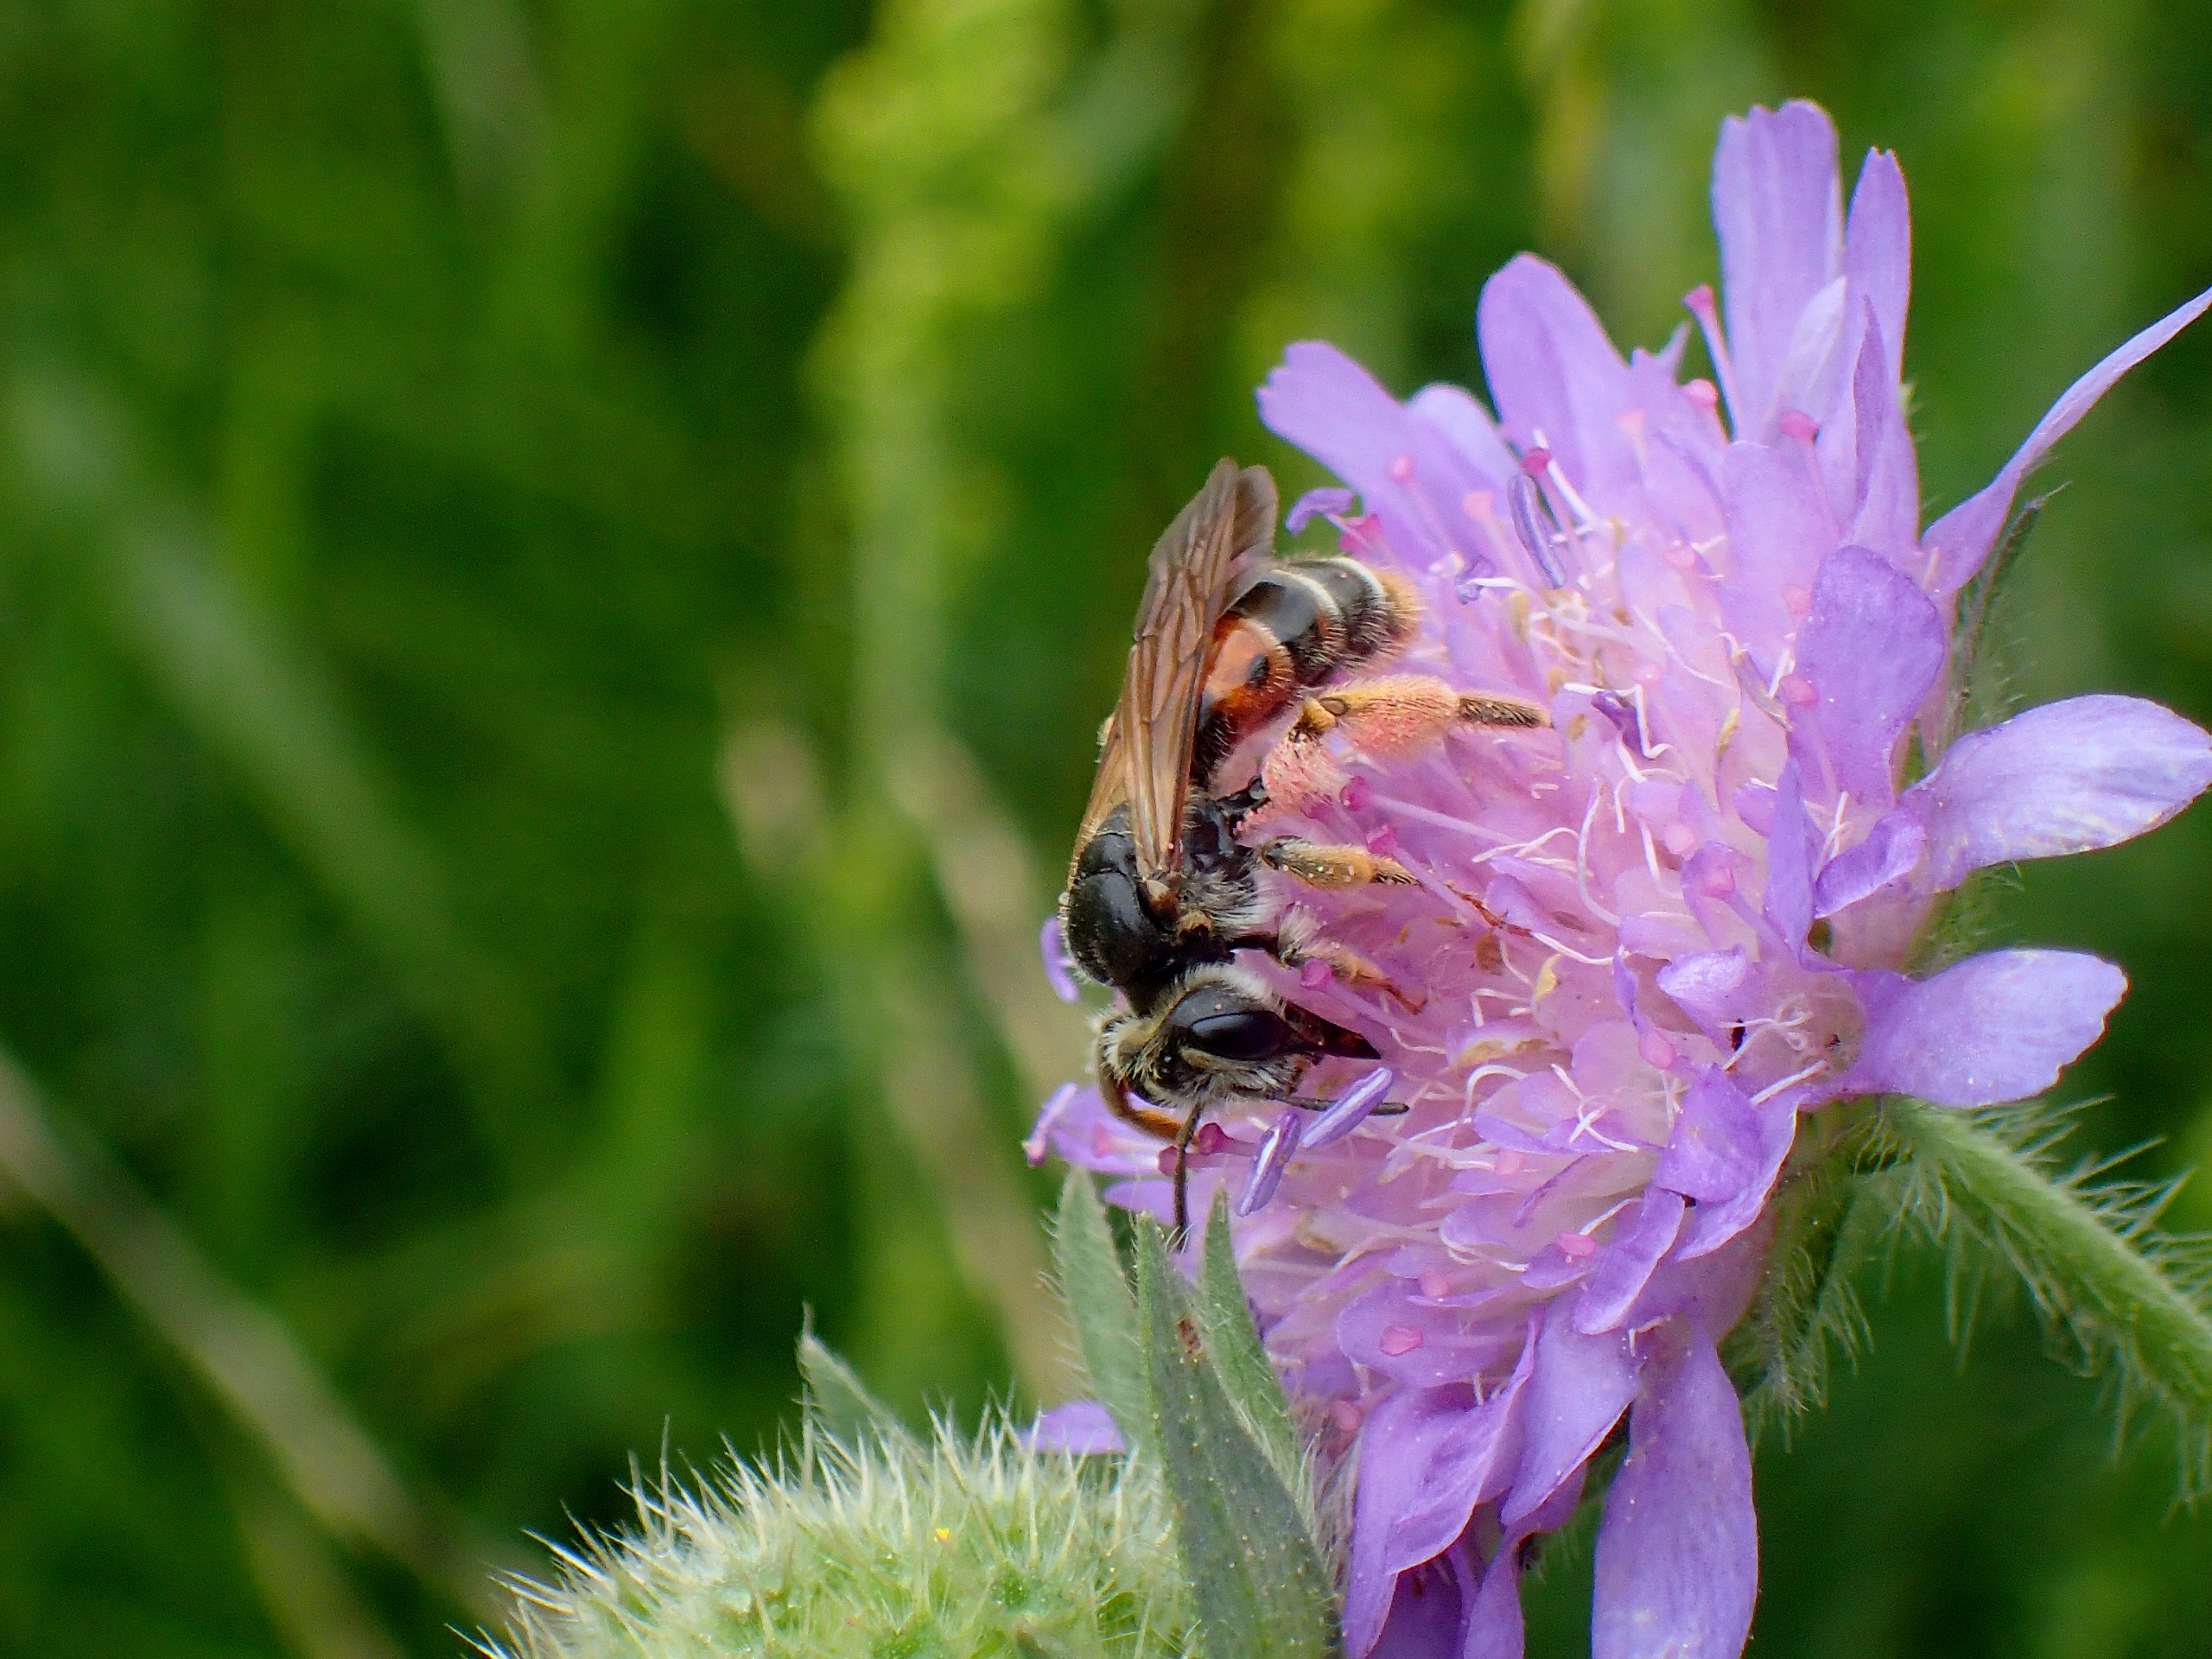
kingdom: Animalia
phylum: Arthropoda
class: Insecta
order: Hymenoptera
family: Andrenidae
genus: Andrena
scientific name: Andrena hattorfiana
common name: Blåhatjordbi
